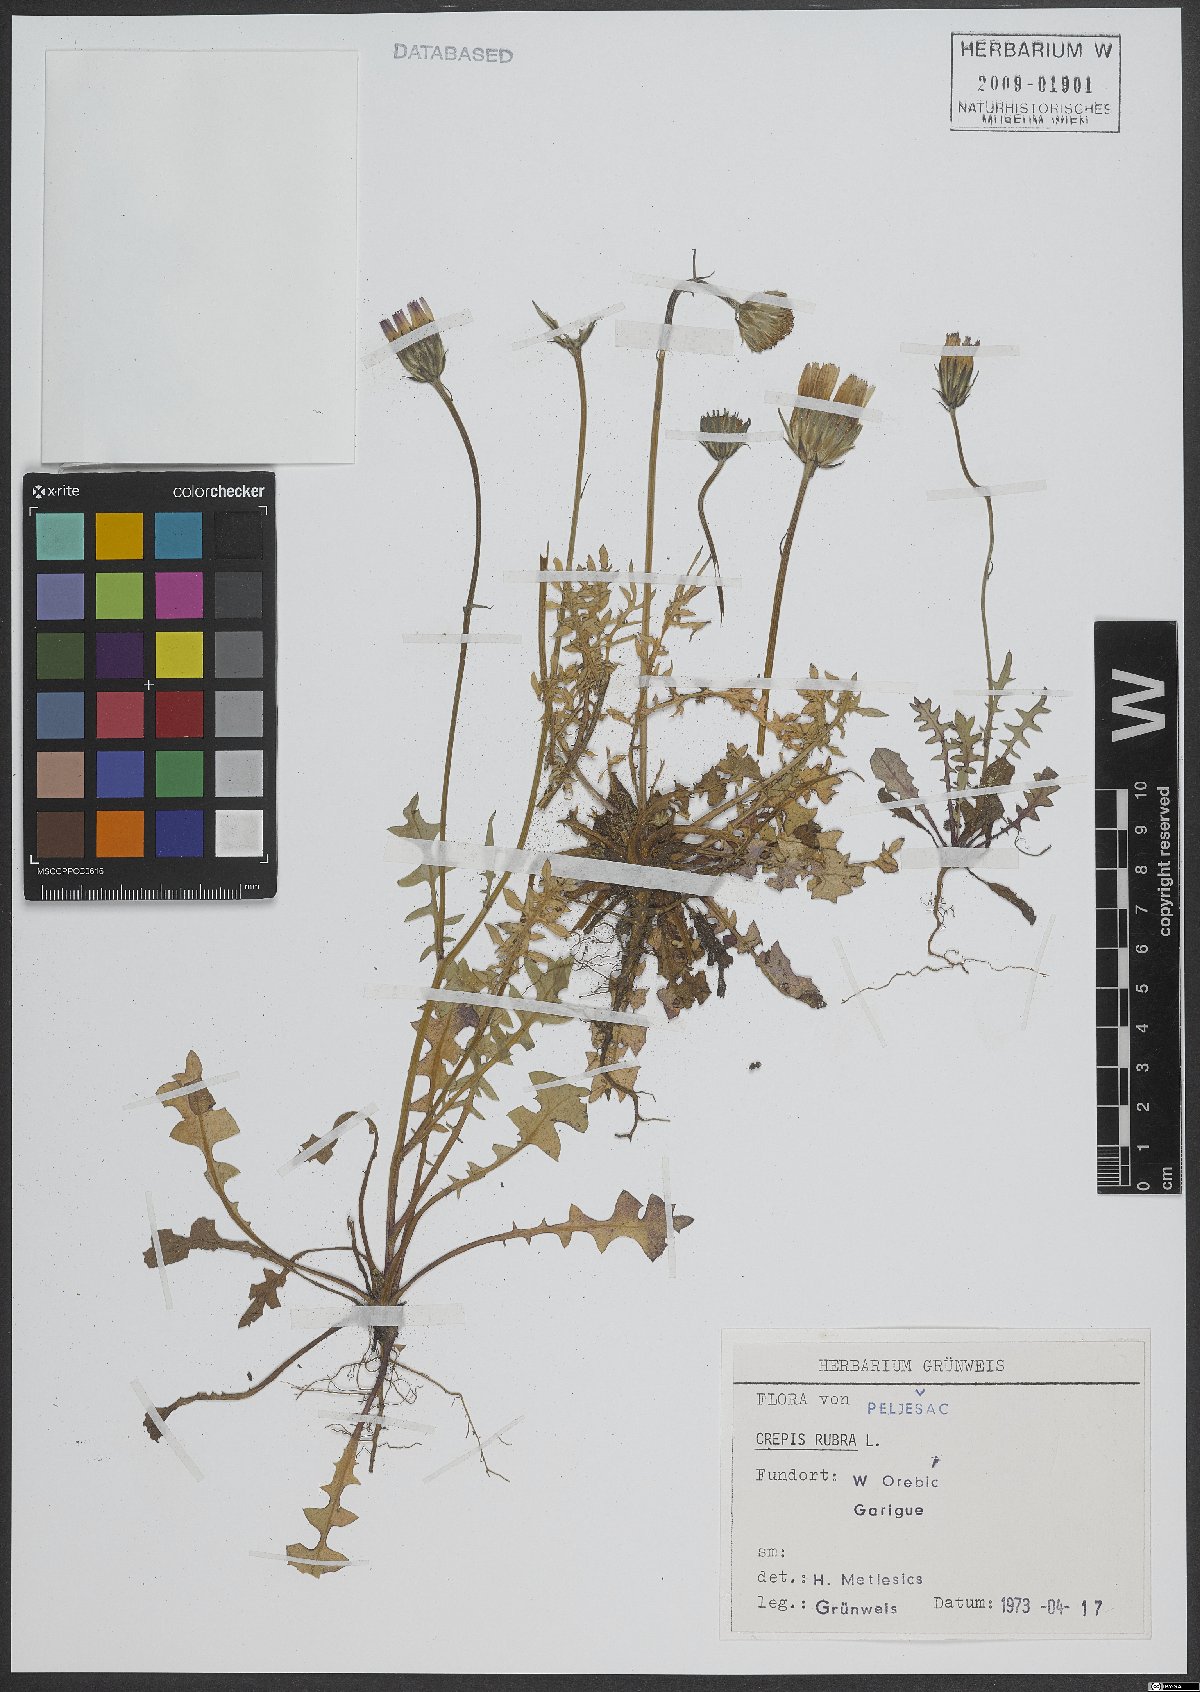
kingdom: Plantae
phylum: Tracheophyta
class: Magnoliopsida
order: Asterales
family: Asteraceae
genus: Crepis
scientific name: Crepis rubra
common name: Pink hawk's-beard
